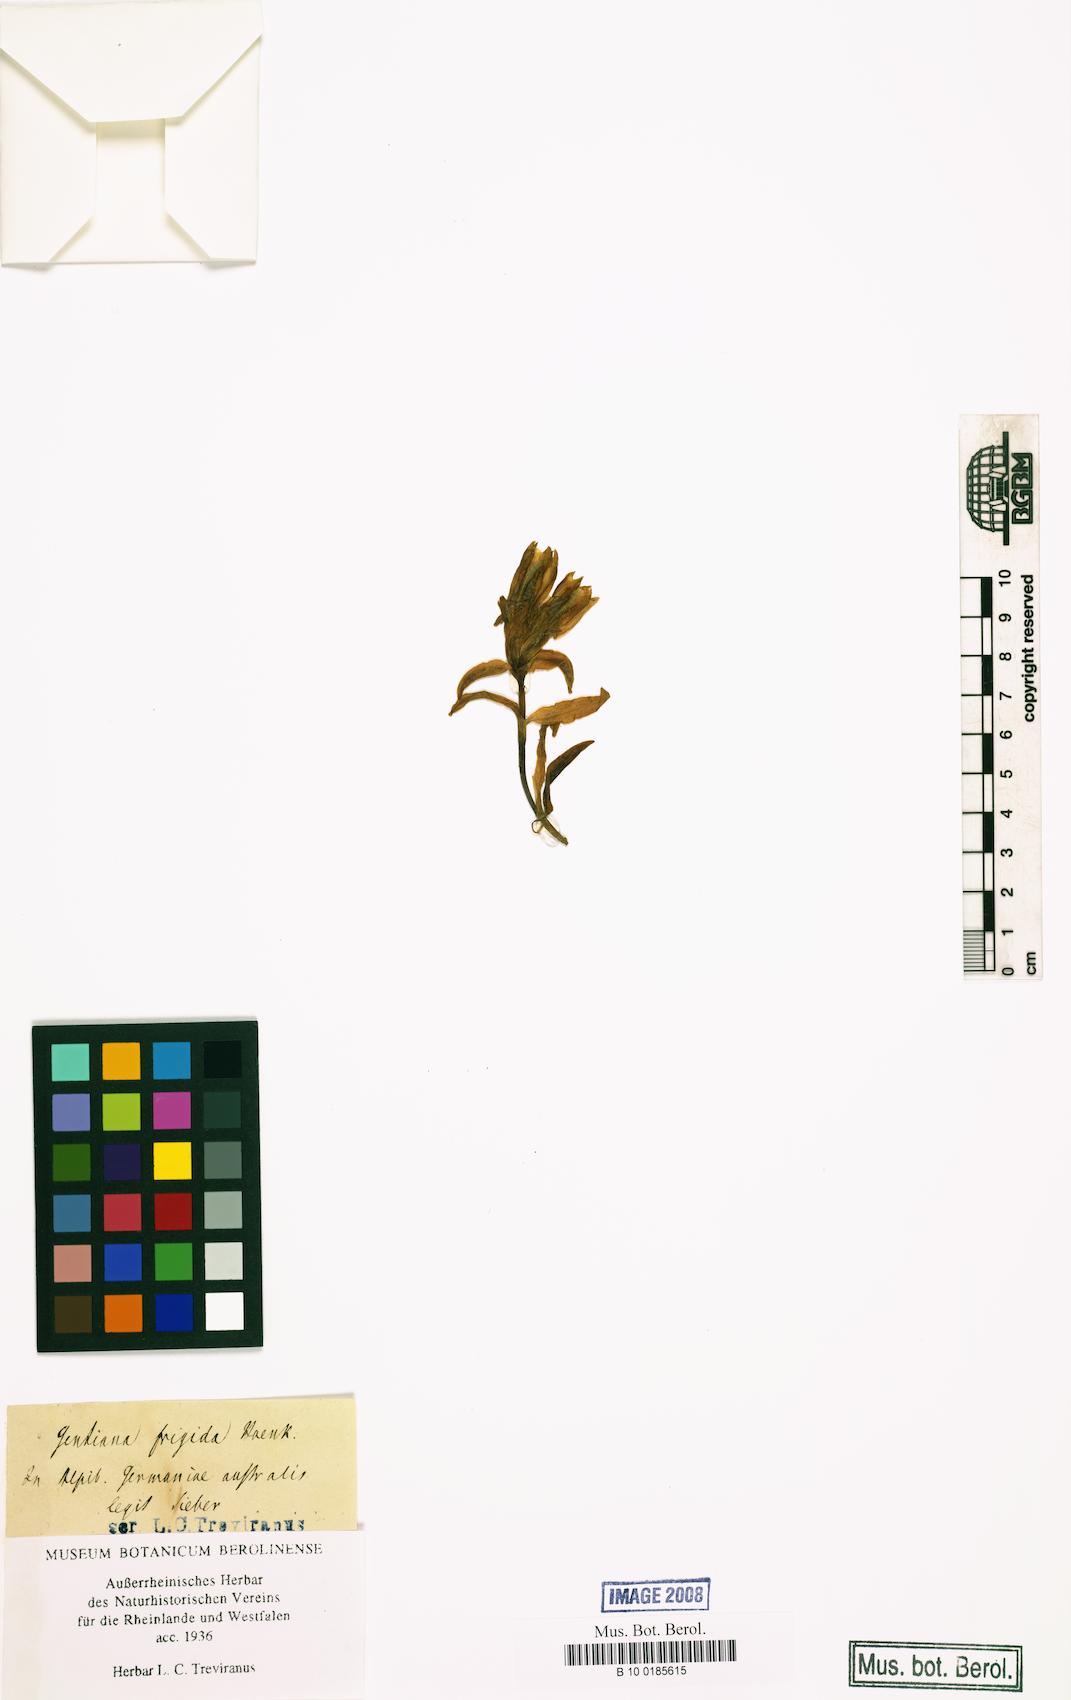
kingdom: Plantae
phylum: Tracheophyta
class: Magnoliopsida
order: Gentianales
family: Gentianaceae
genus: Gentiana
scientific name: Gentiana frigida
